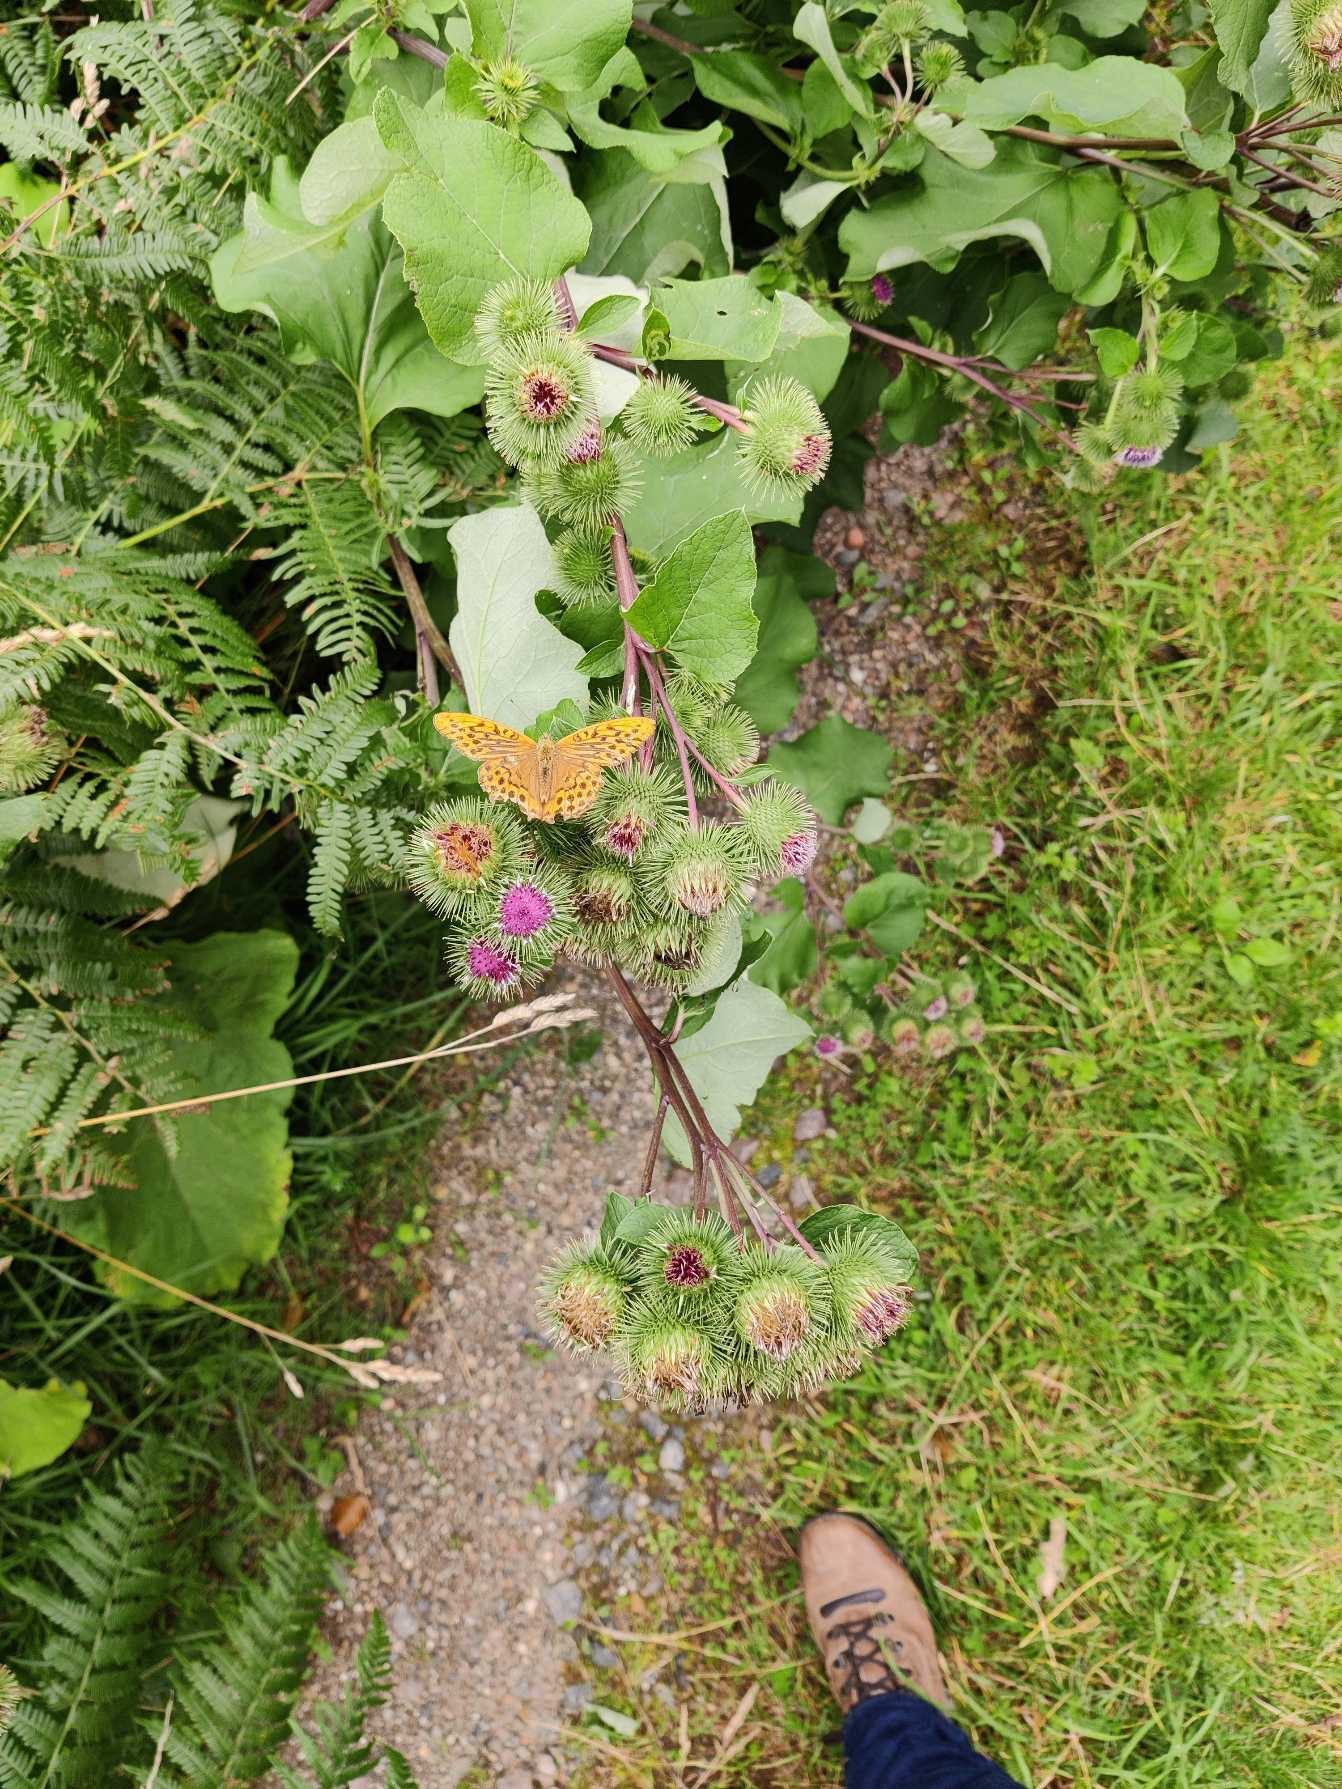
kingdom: Animalia
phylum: Arthropoda
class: Insecta
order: Lepidoptera
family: Nymphalidae
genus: Argynnis
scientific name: Argynnis paphia
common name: Kejserkåbe
